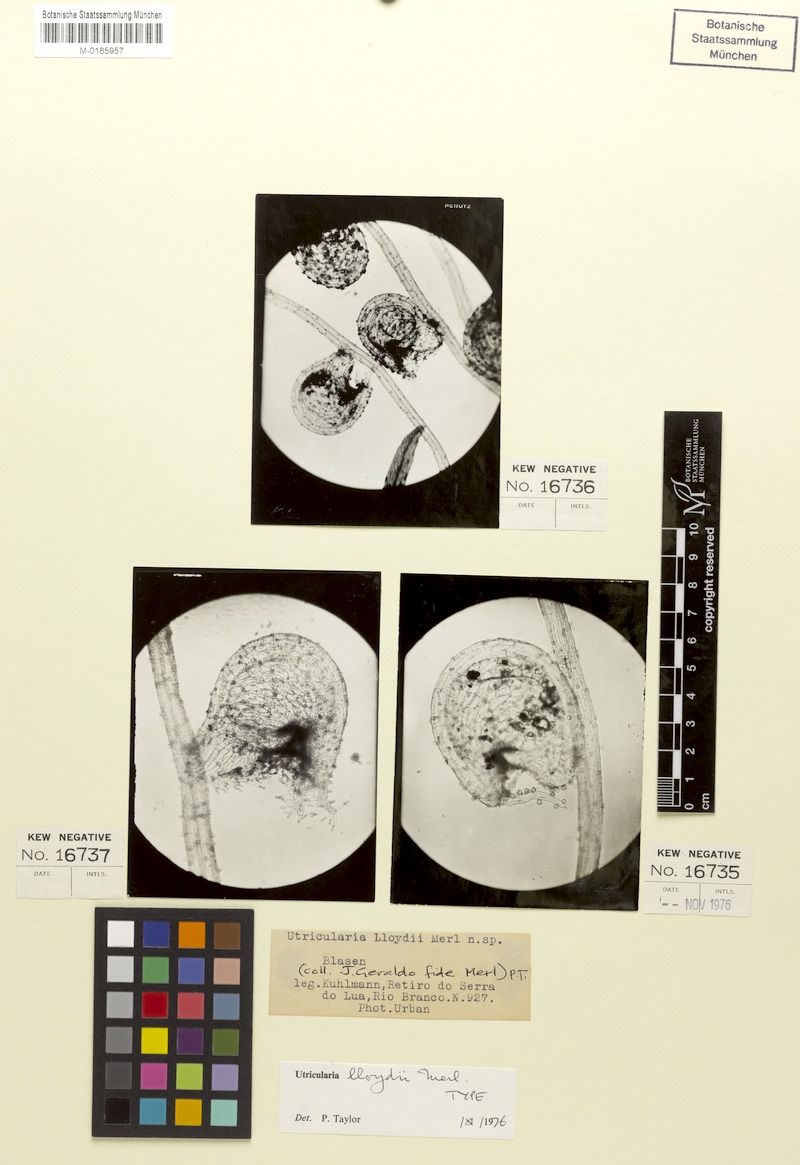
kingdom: Plantae
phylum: Tracheophyta
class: Magnoliopsida
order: Lamiales
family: Lentibulariaceae
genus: Utricularia
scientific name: Utricularia lloydii
